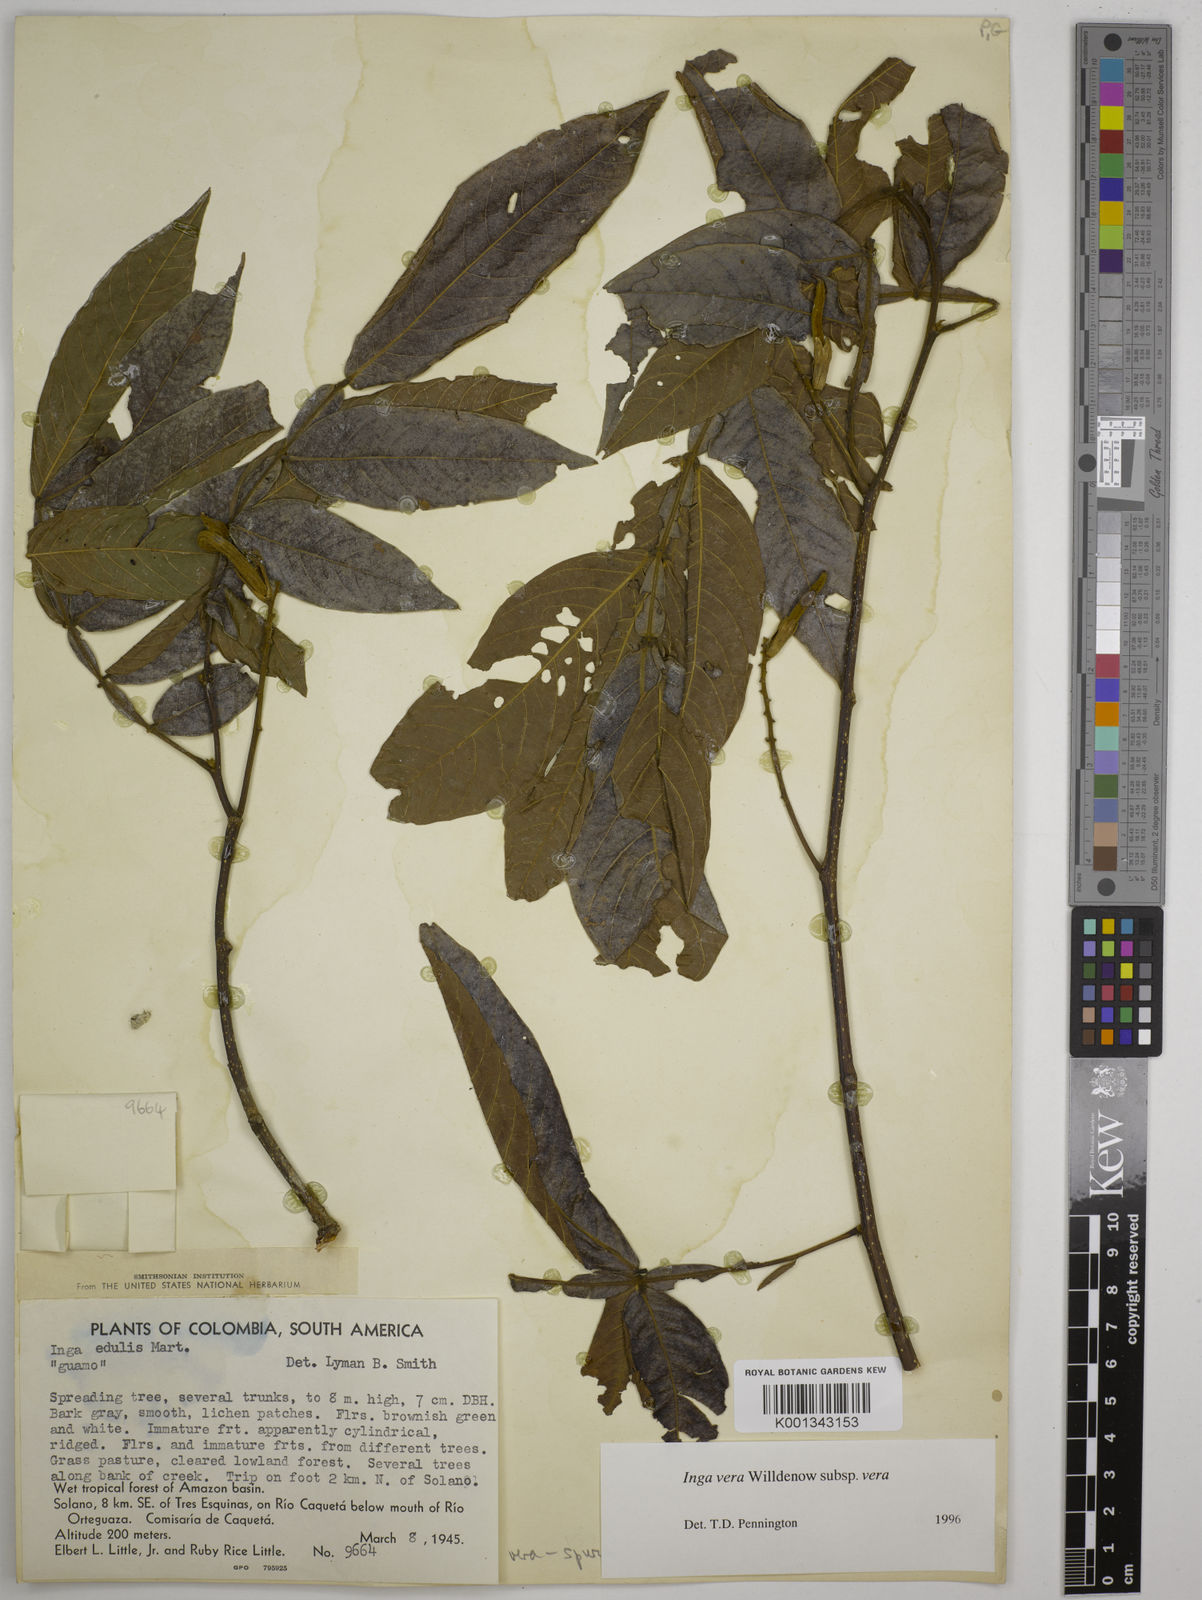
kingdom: Plantae
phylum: Tracheophyta
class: Magnoliopsida
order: Fabales
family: Fabaceae
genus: Inga
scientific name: Inga vera
